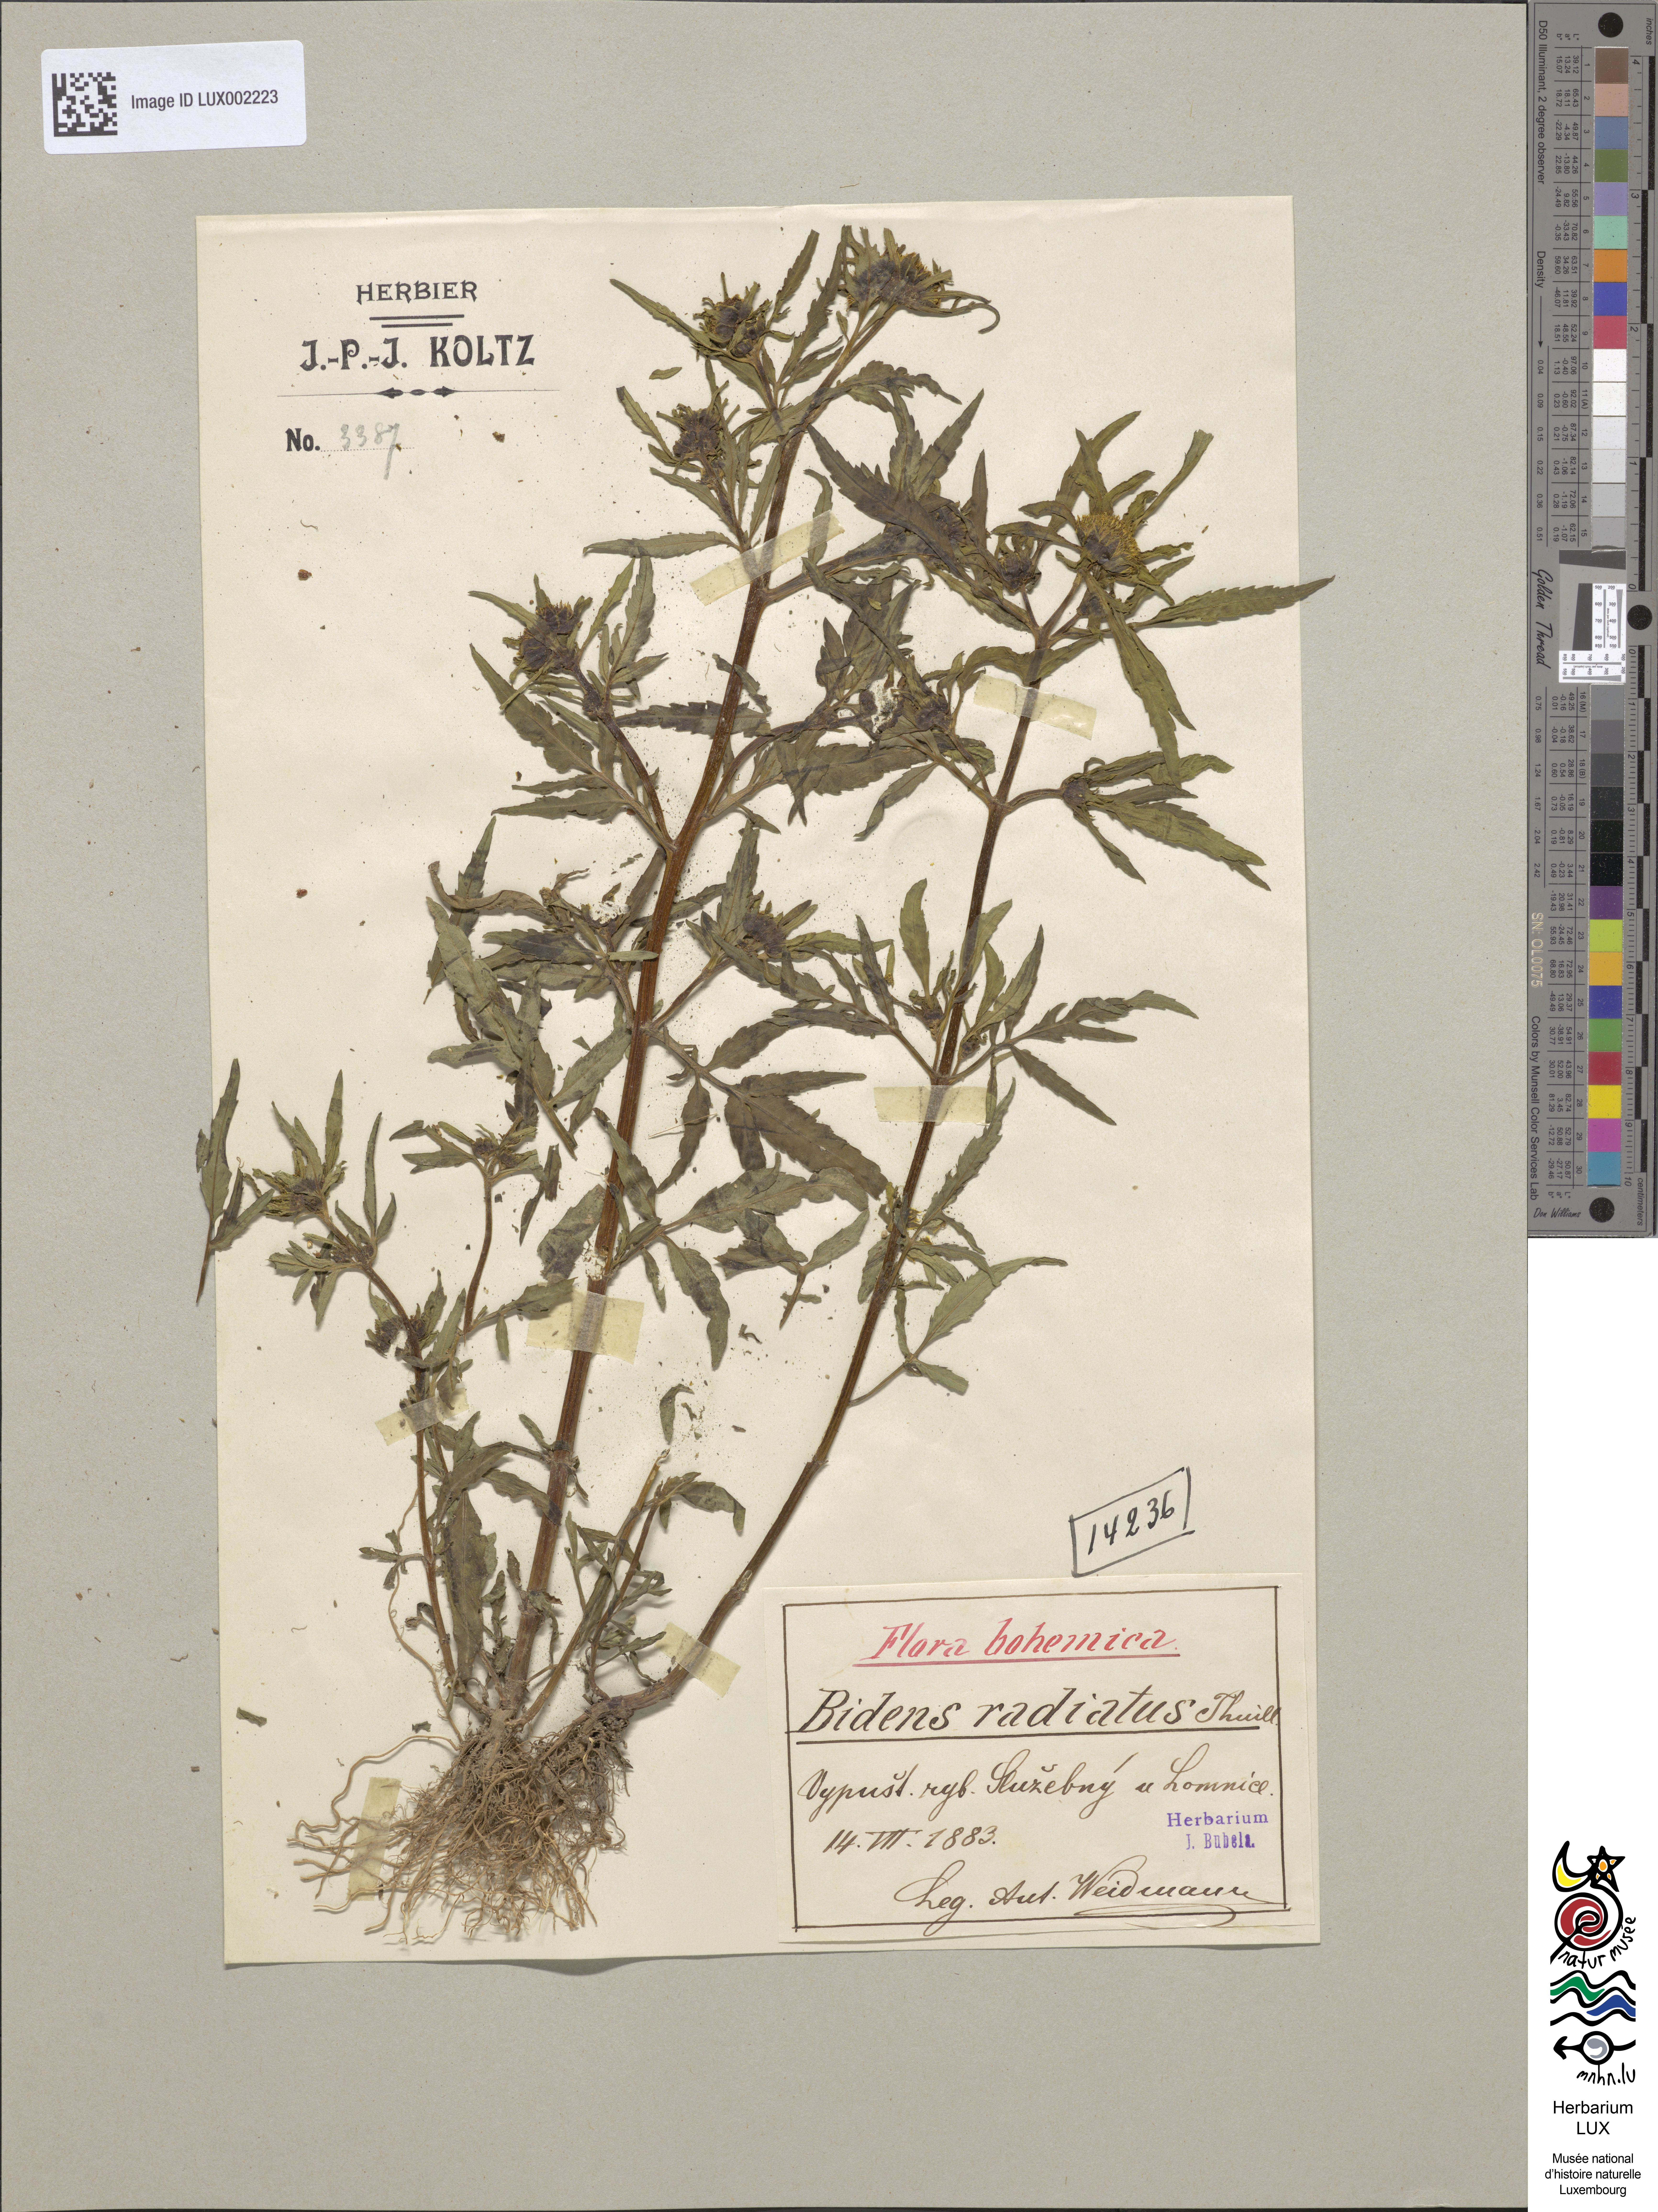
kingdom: Plantae
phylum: Tracheophyta
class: Magnoliopsida
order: Asterales
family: Asteraceae
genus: Bidens
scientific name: Bidens radiata
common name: Radiating bur-marigold
